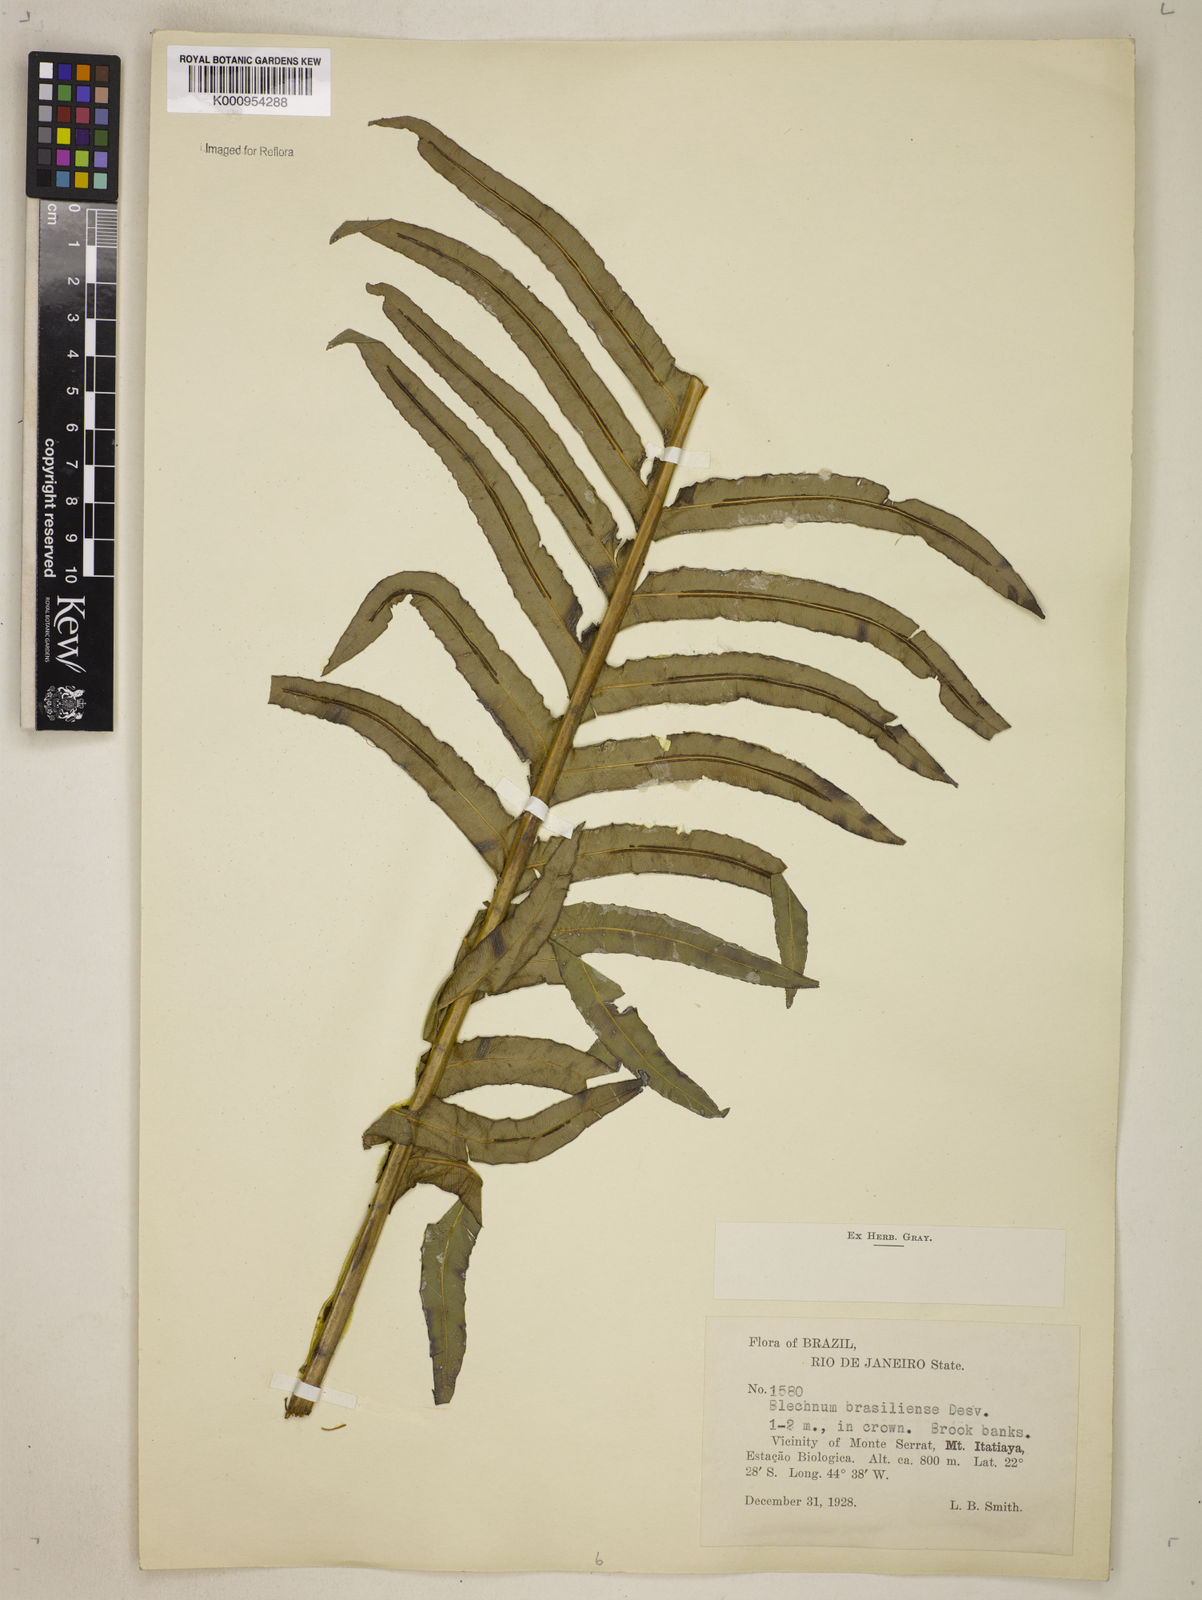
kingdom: Plantae
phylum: Tracheophyta
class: Polypodiopsida
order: Polypodiales
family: Blechnaceae
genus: Neoblechnum
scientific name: Neoblechnum brasiliense
